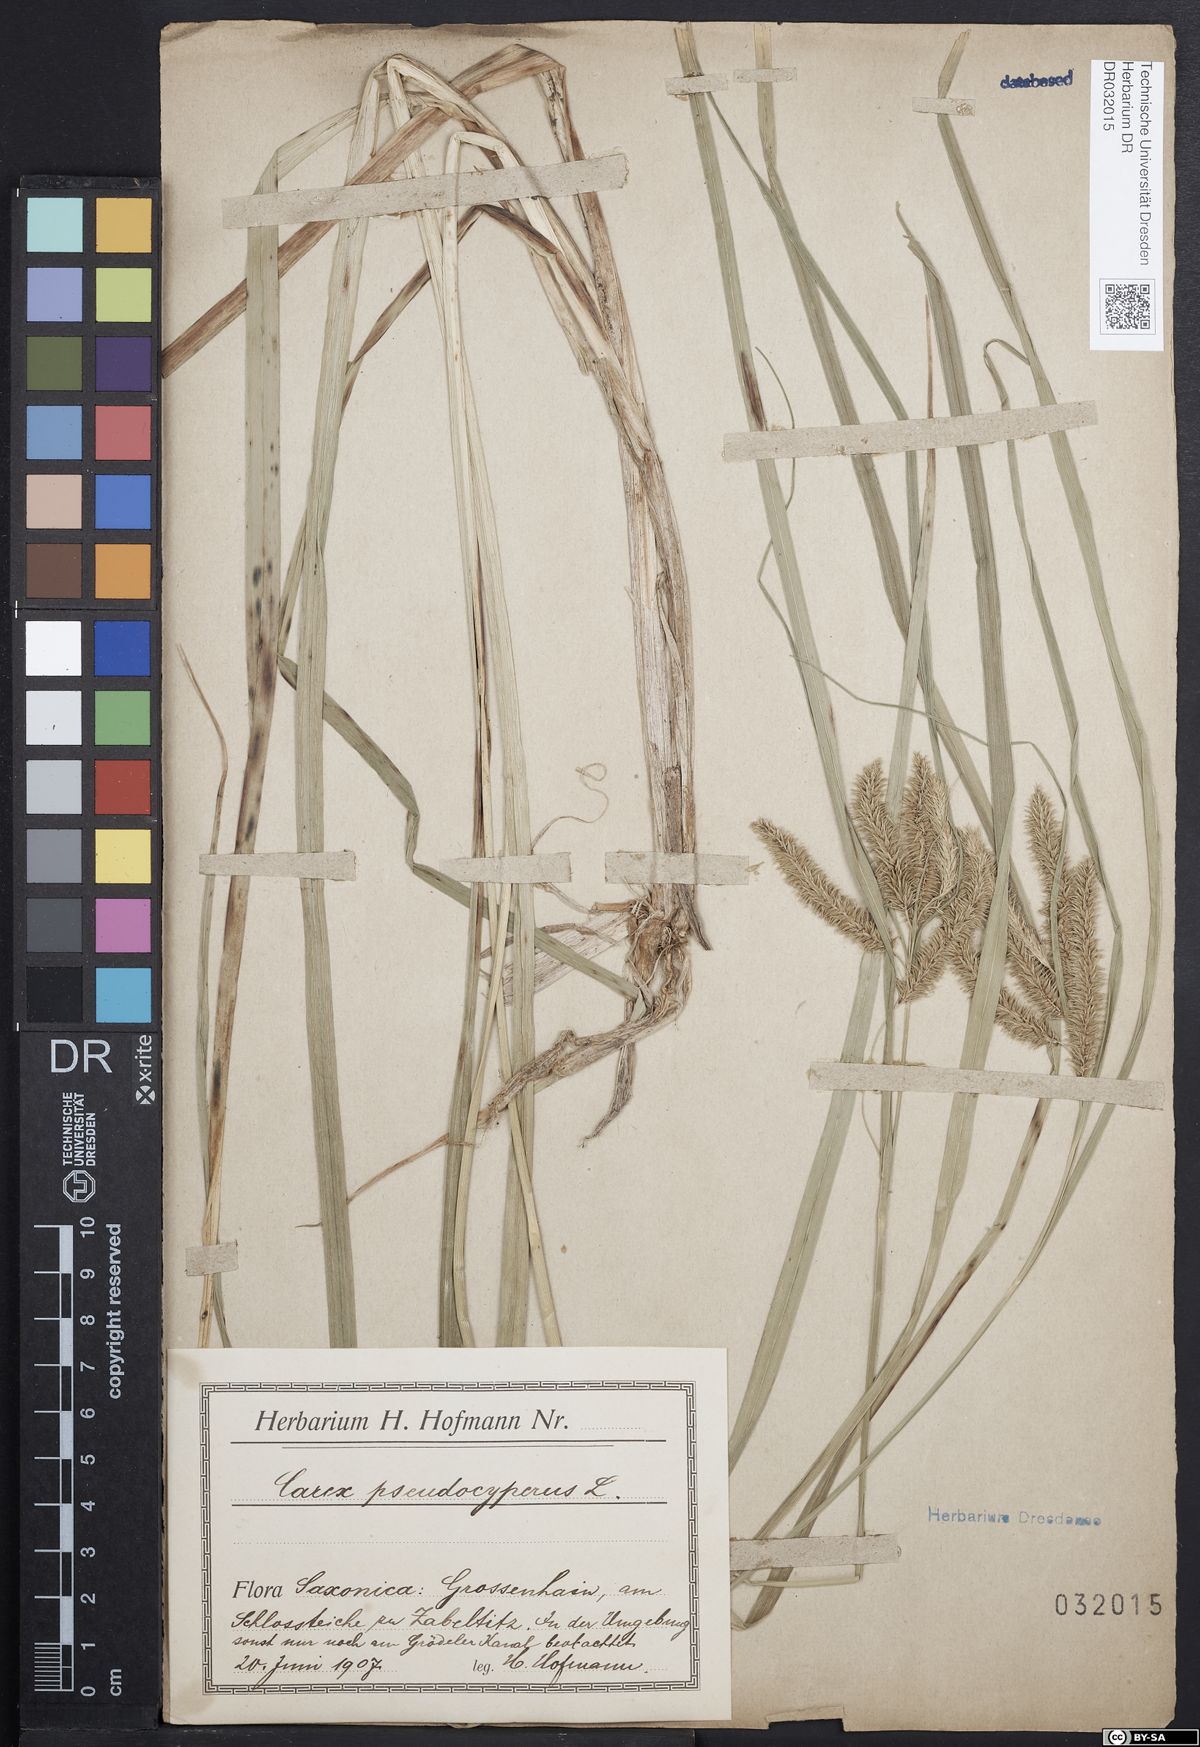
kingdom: Plantae
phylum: Tracheophyta
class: Liliopsida
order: Poales
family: Cyperaceae
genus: Carex
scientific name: Carex pseudocyperus
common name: Cyperus sedge
